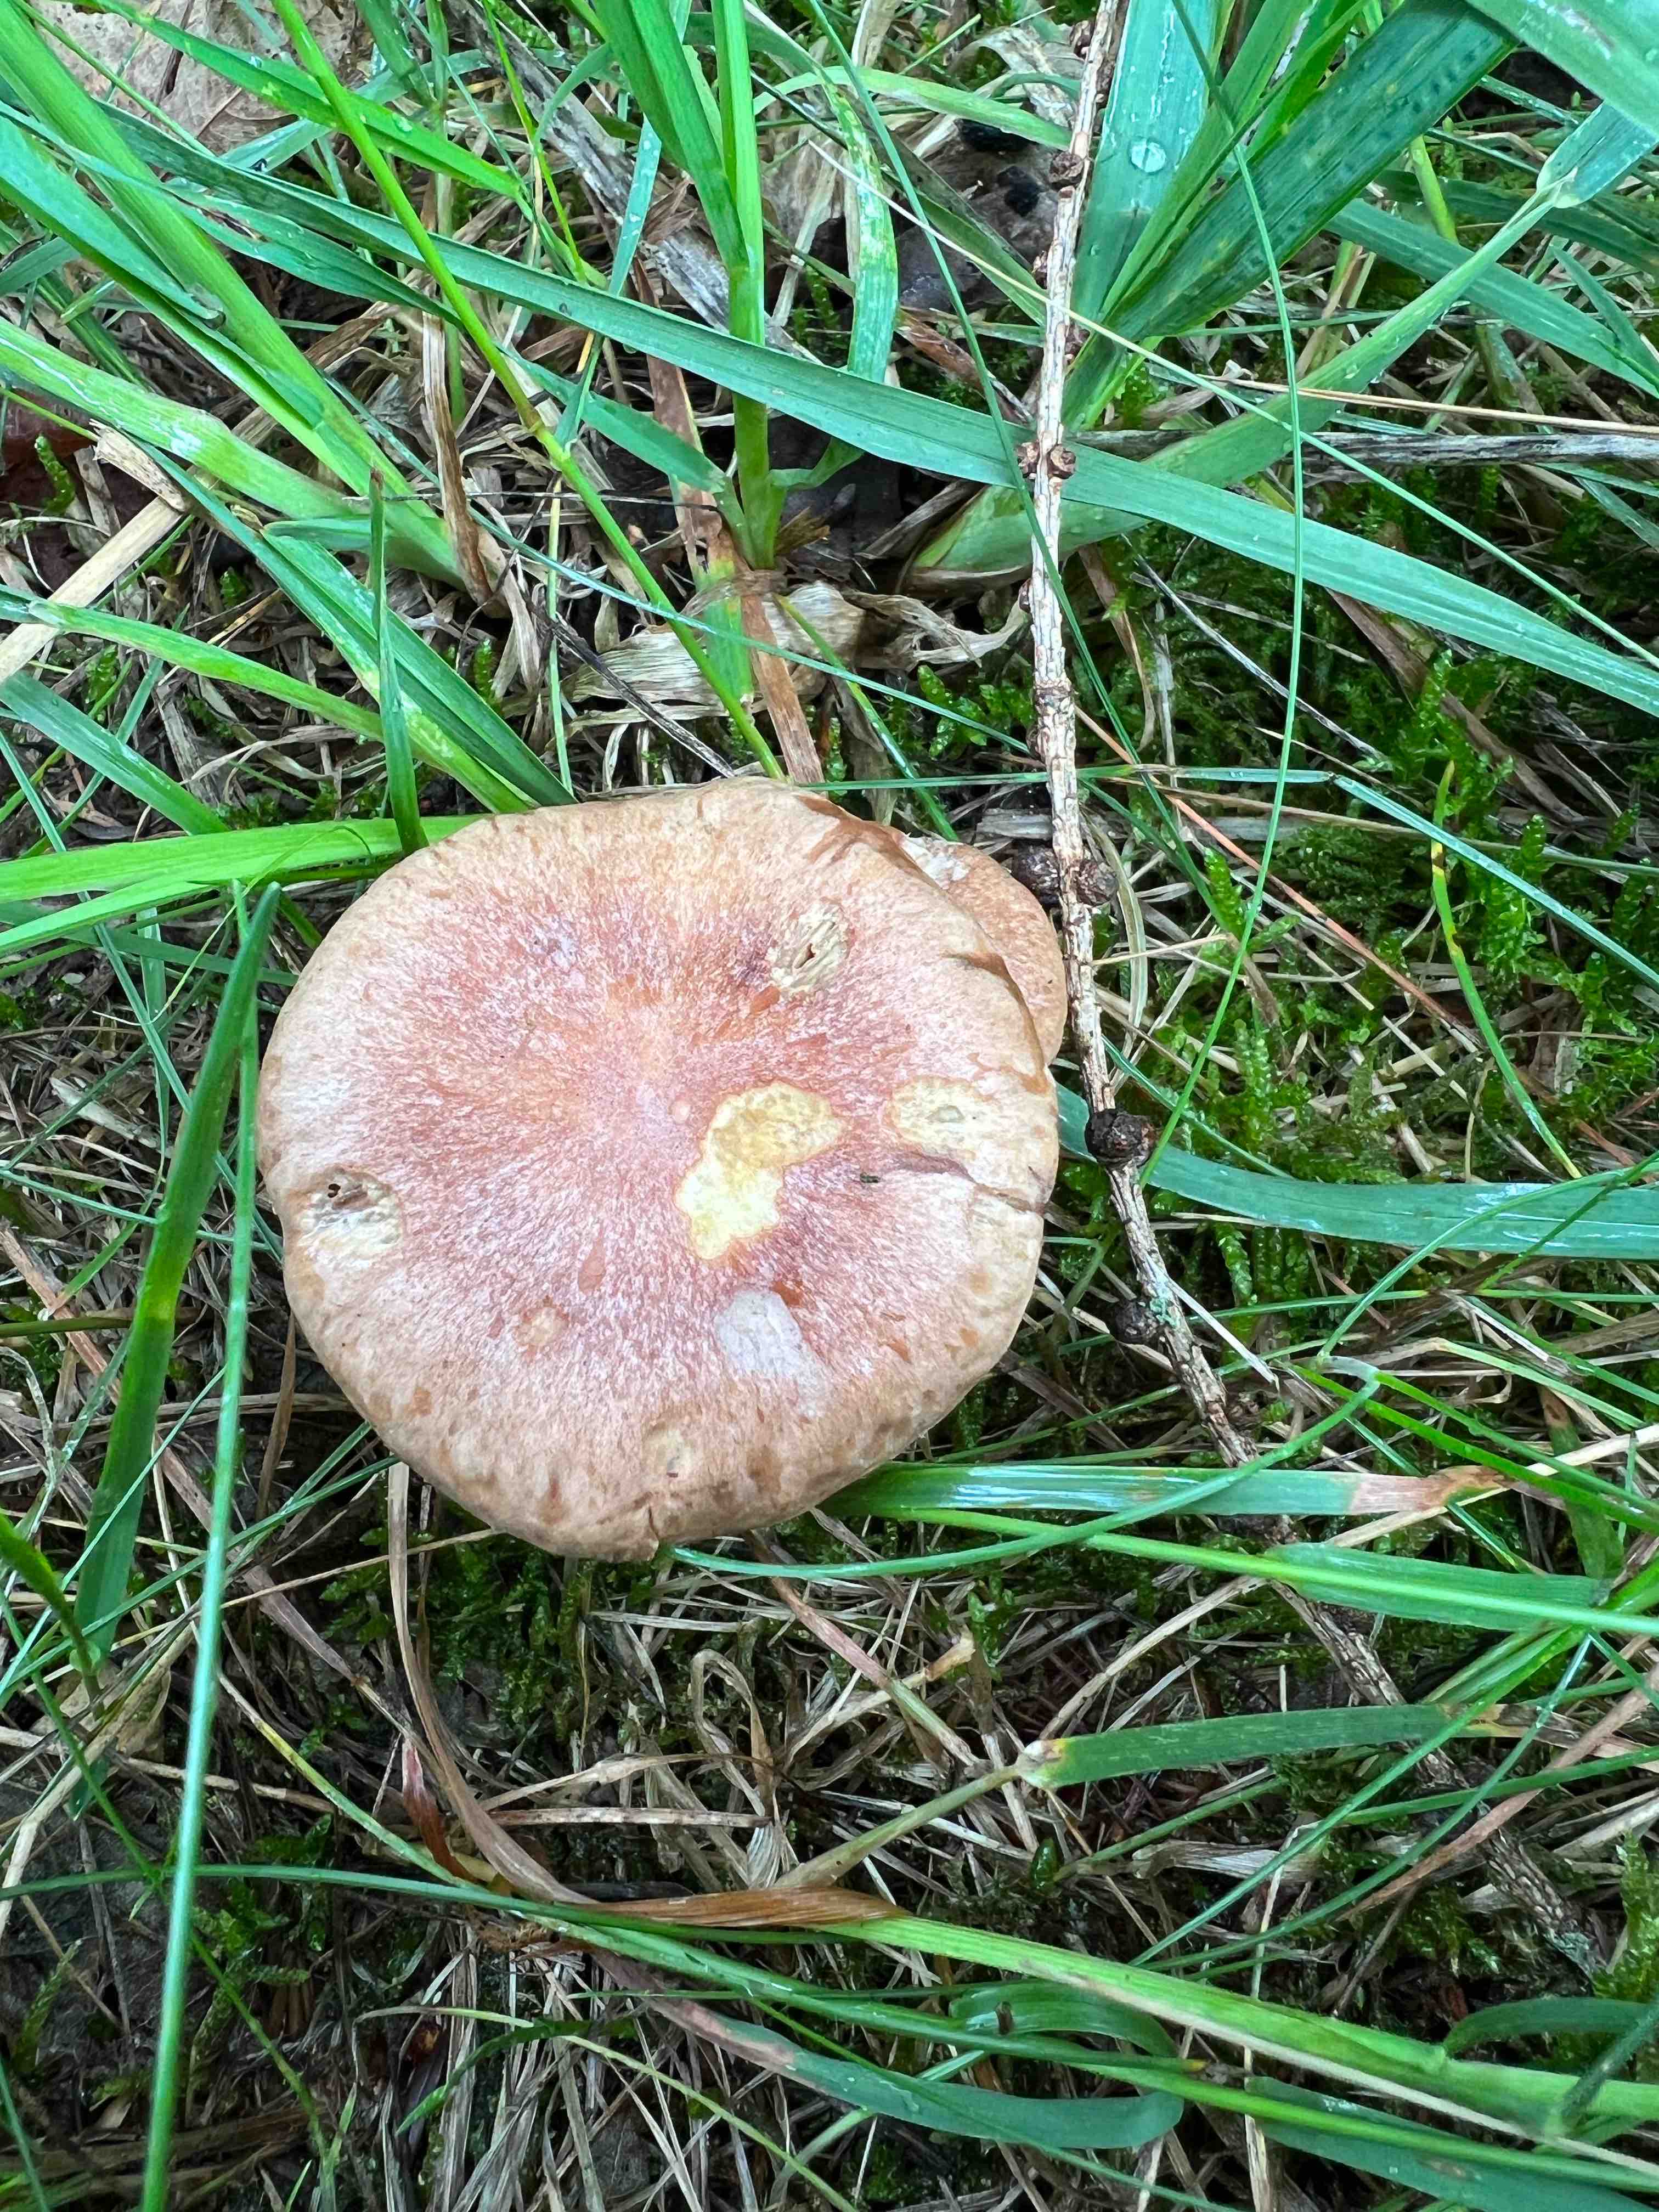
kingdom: Fungi
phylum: Basidiomycota
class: Agaricomycetes
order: Agaricales
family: Omphalotaceae
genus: Collybiopsis
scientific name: Collybiopsis peronata
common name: bestøvlet fladhat
